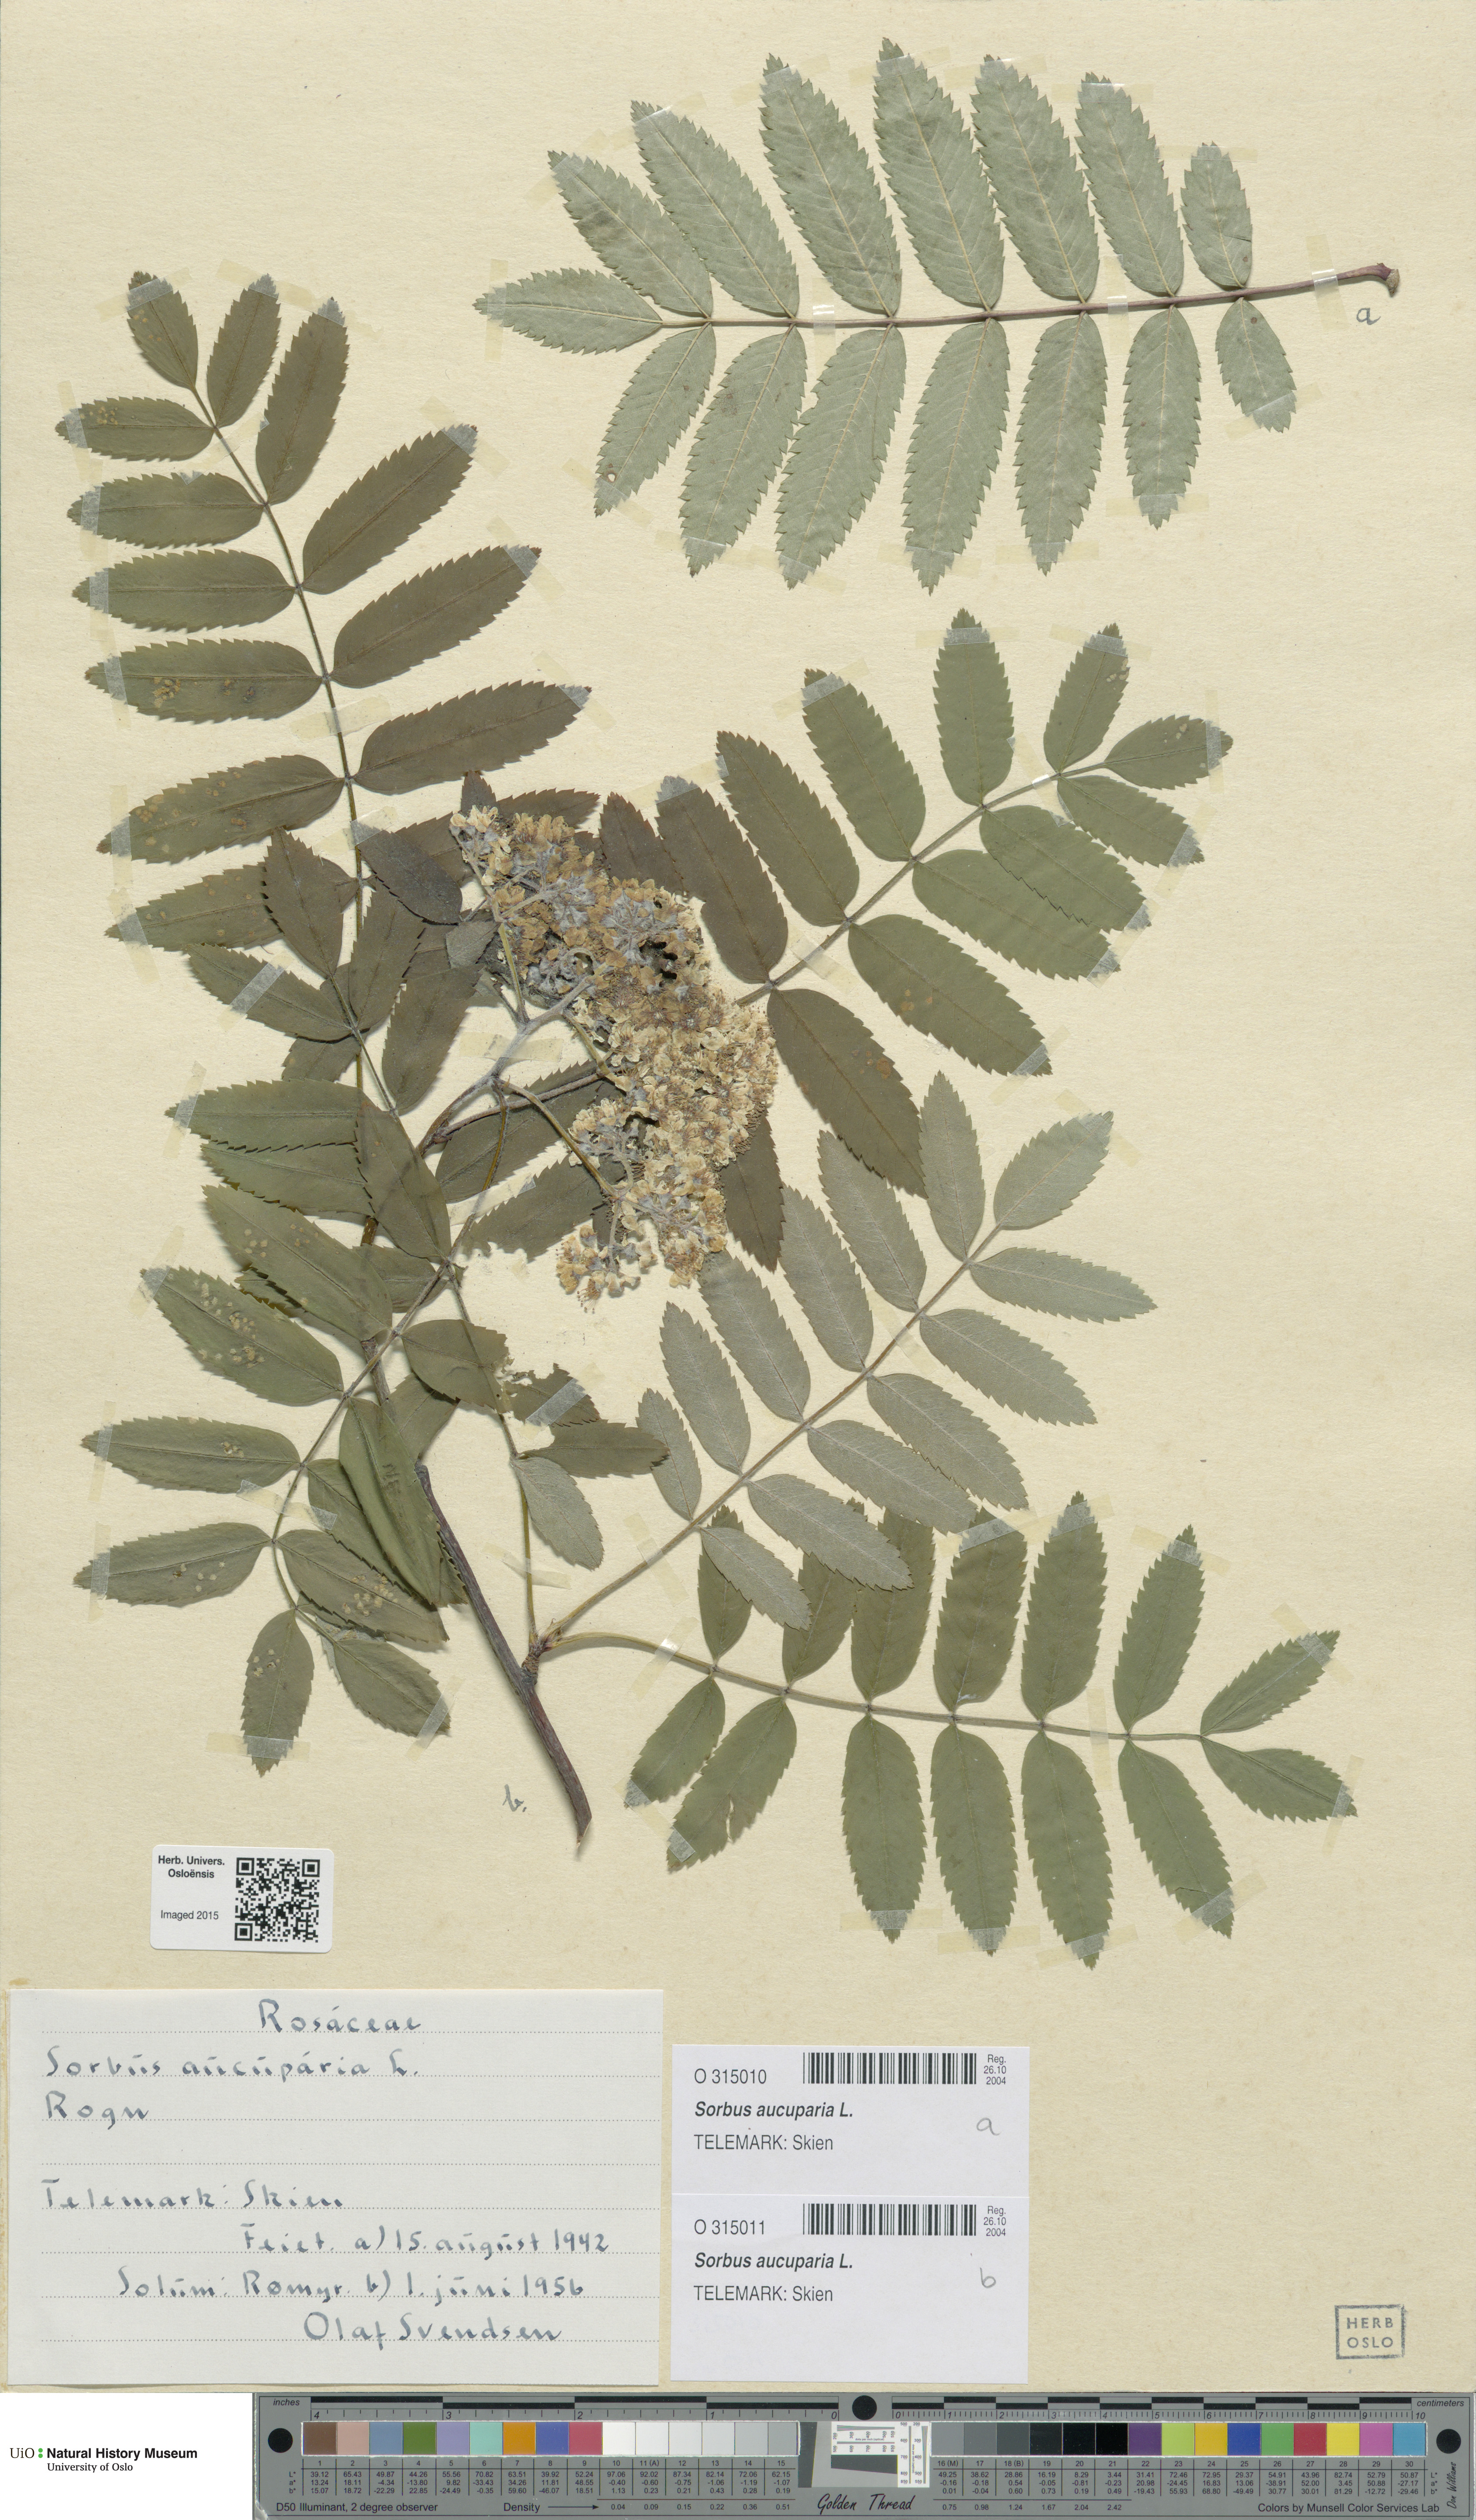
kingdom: Plantae
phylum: Tracheophyta
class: Magnoliopsida
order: Rosales
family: Rosaceae
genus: Sorbus
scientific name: Sorbus aucuparia
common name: Rowan
